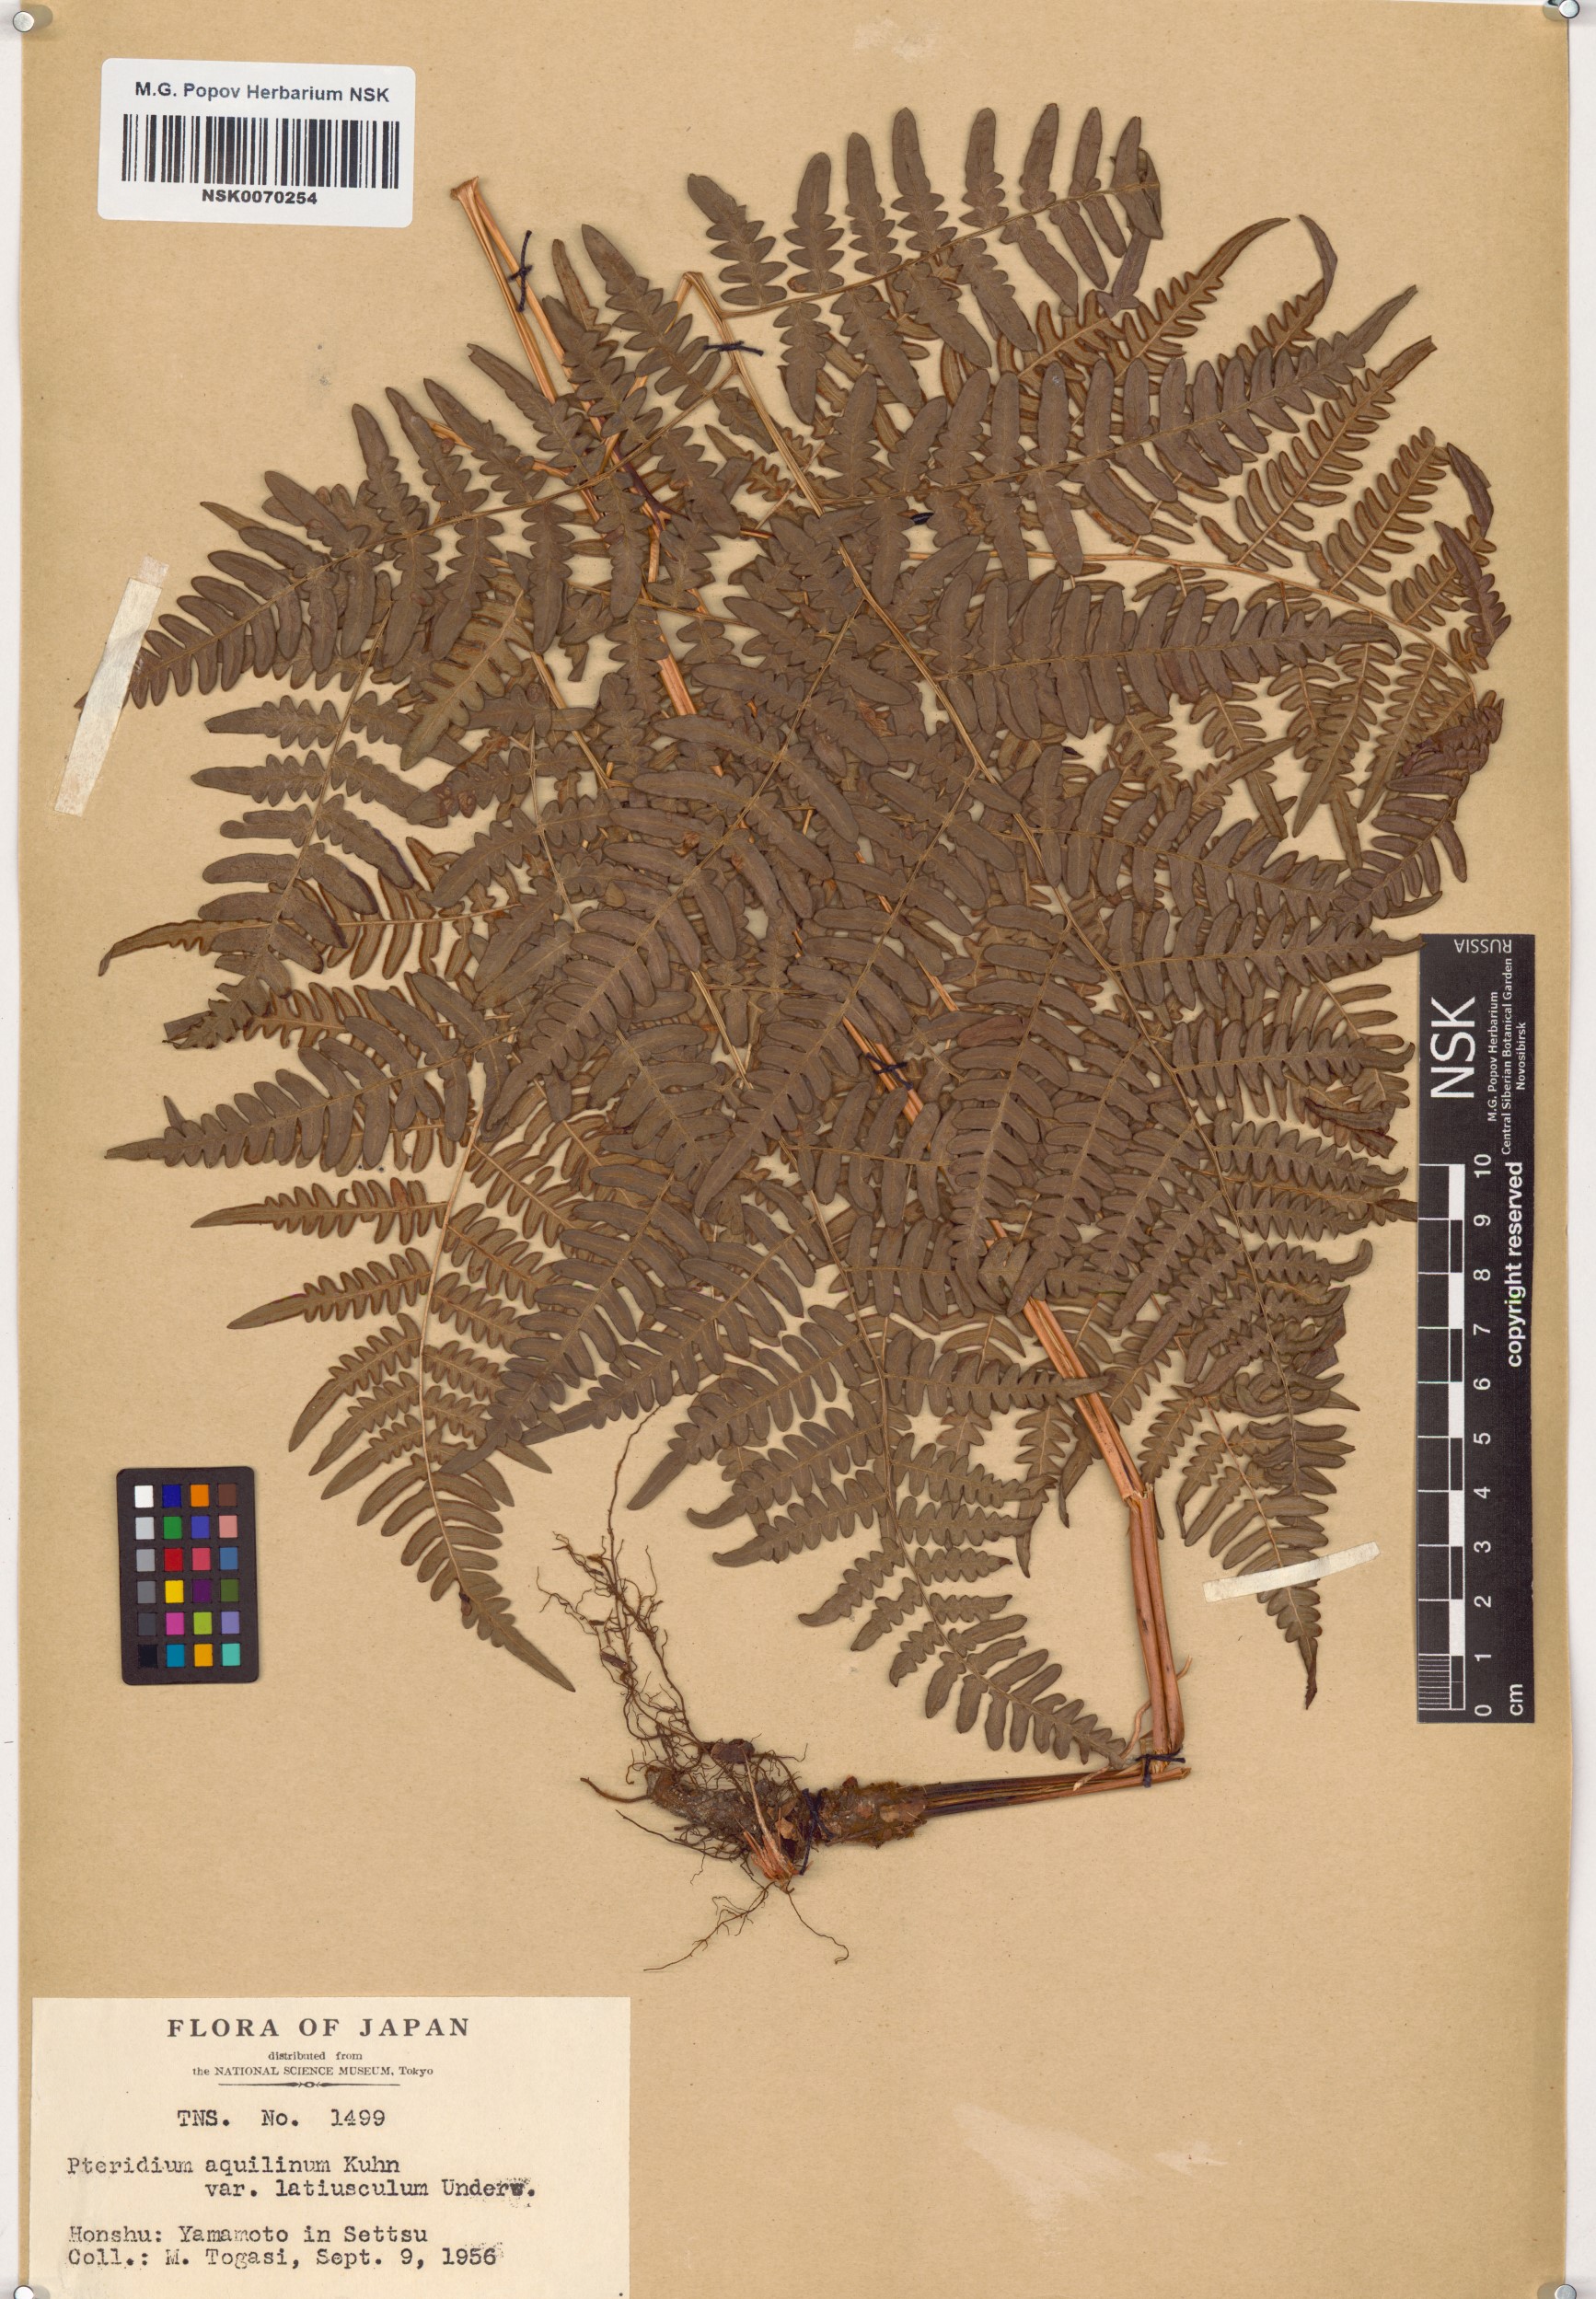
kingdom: Plantae
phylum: Tracheophyta
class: Polypodiopsida
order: Polypodiales
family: Dennstaedtiaceae
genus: Pteridium
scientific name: Pteridium aquilinum
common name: Bracken
